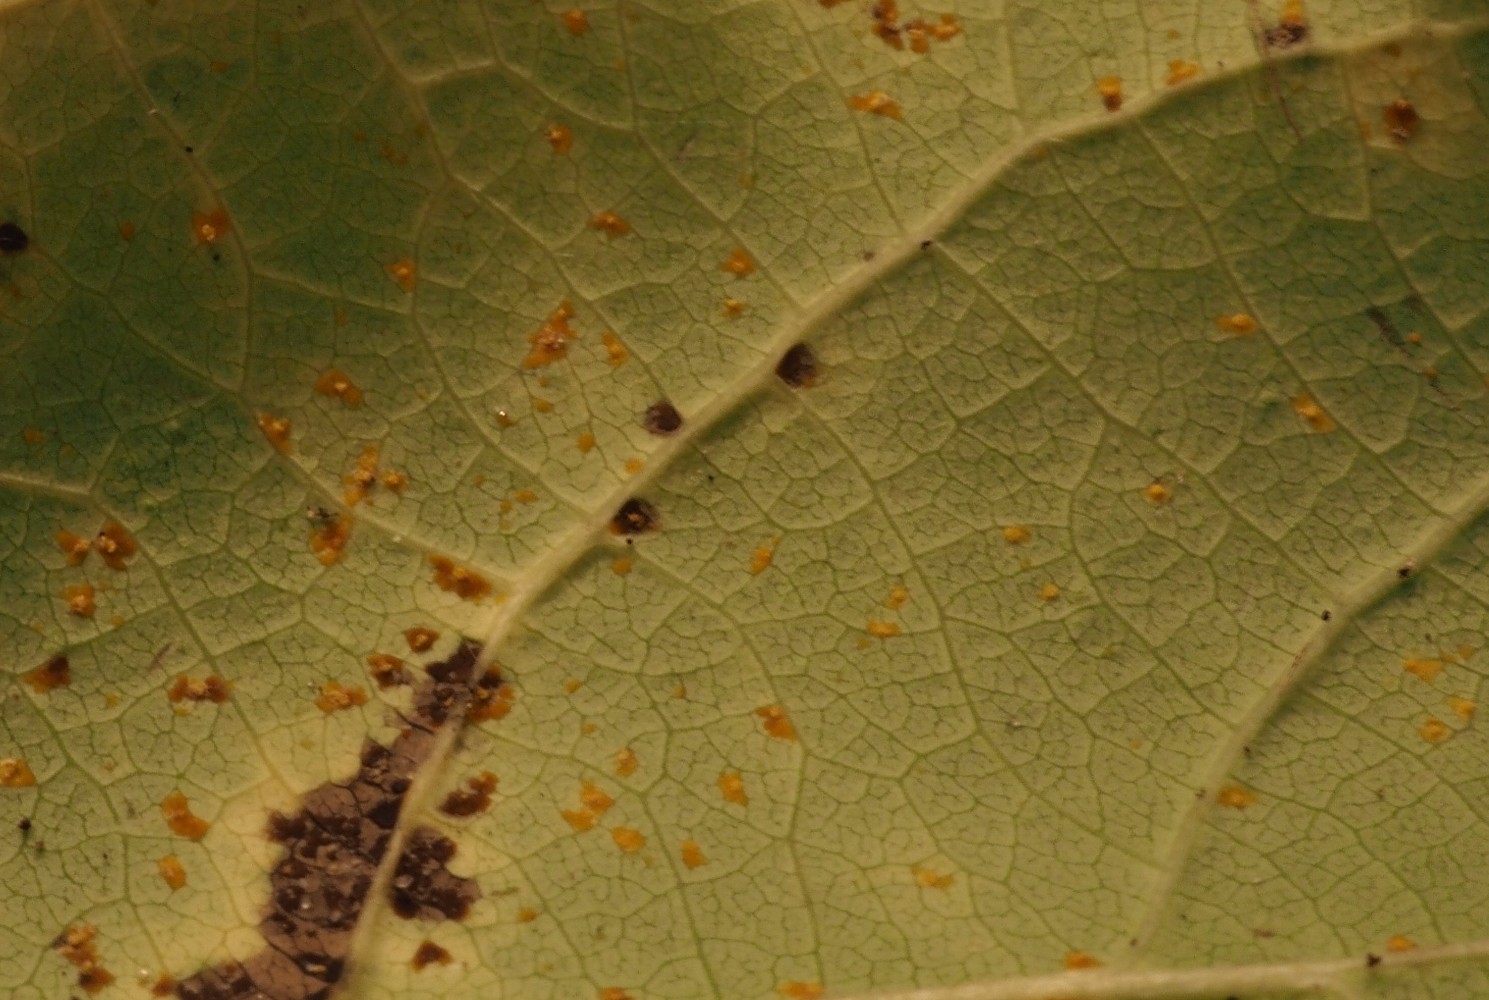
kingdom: Fungi
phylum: Basidiomycota
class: Pucciniomycetes
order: Pucciniales
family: Melampsoraceae
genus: Melampsora
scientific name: Melampsora populnea
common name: poppel-skorperust
